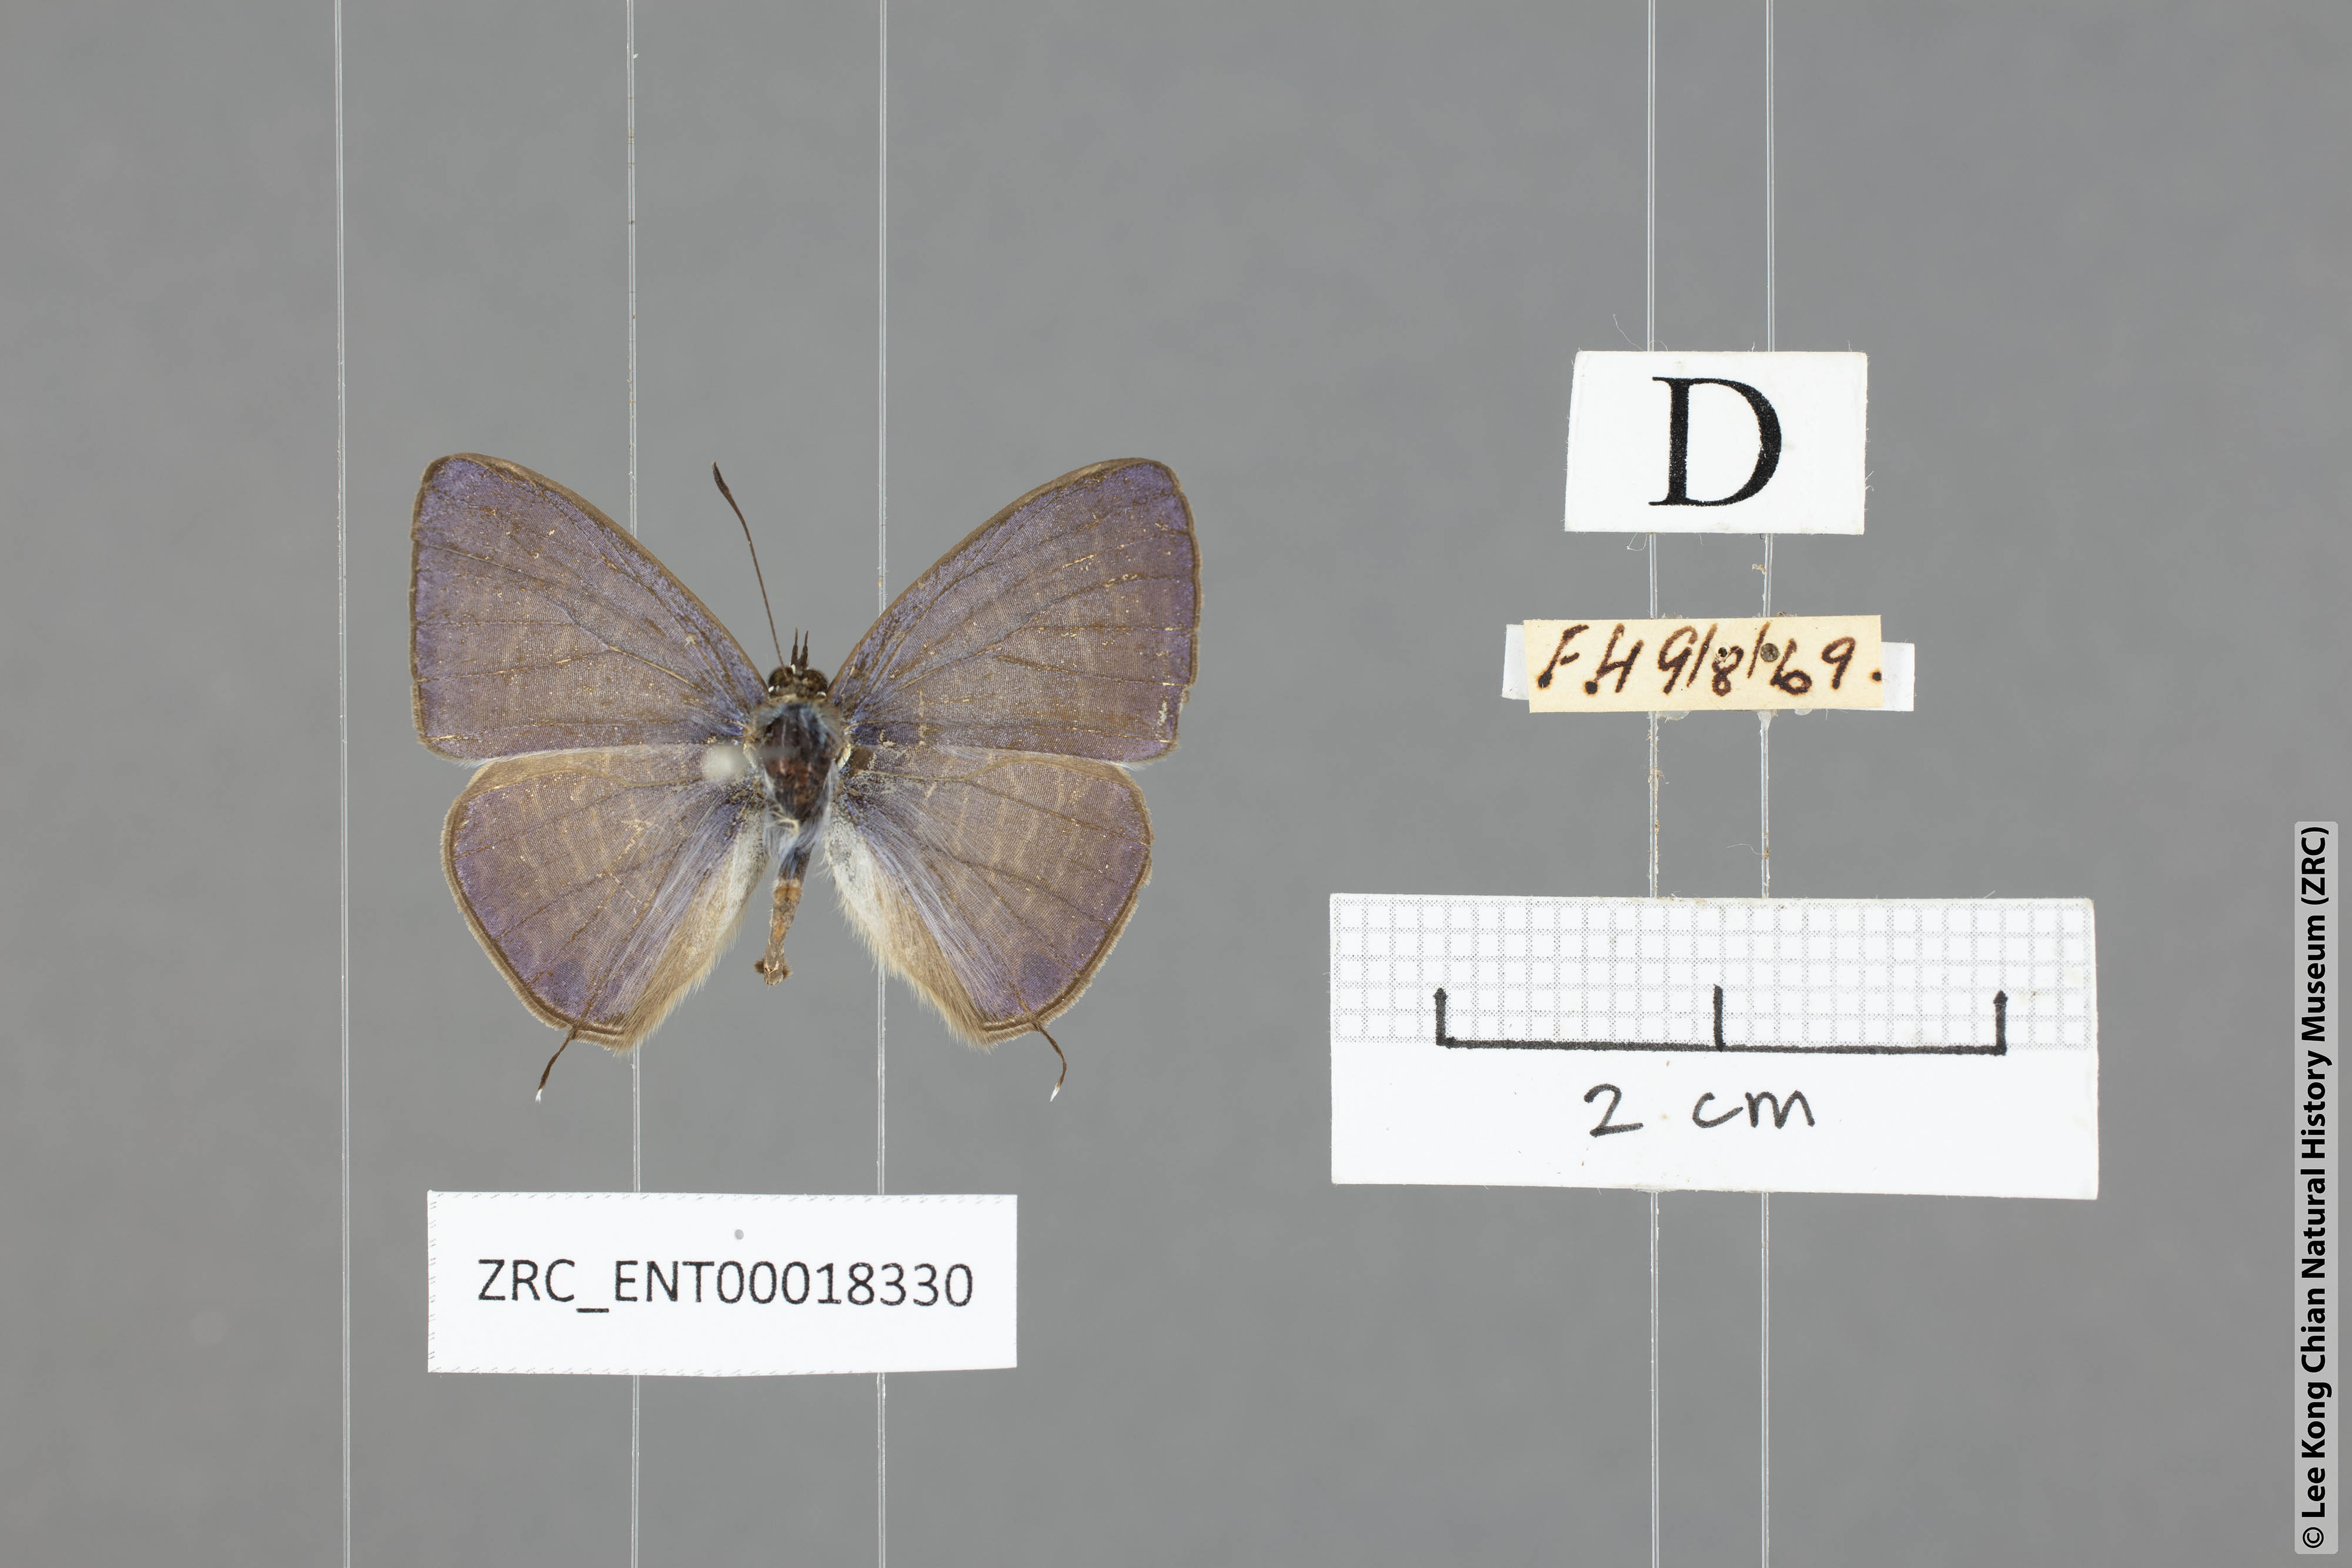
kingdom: Animalia
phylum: Arthropoda
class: Insecta
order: Lepidoptera
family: Lycaenidae
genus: Nacaduba
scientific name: Nacaduba beroe
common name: Opaque sixline blue
